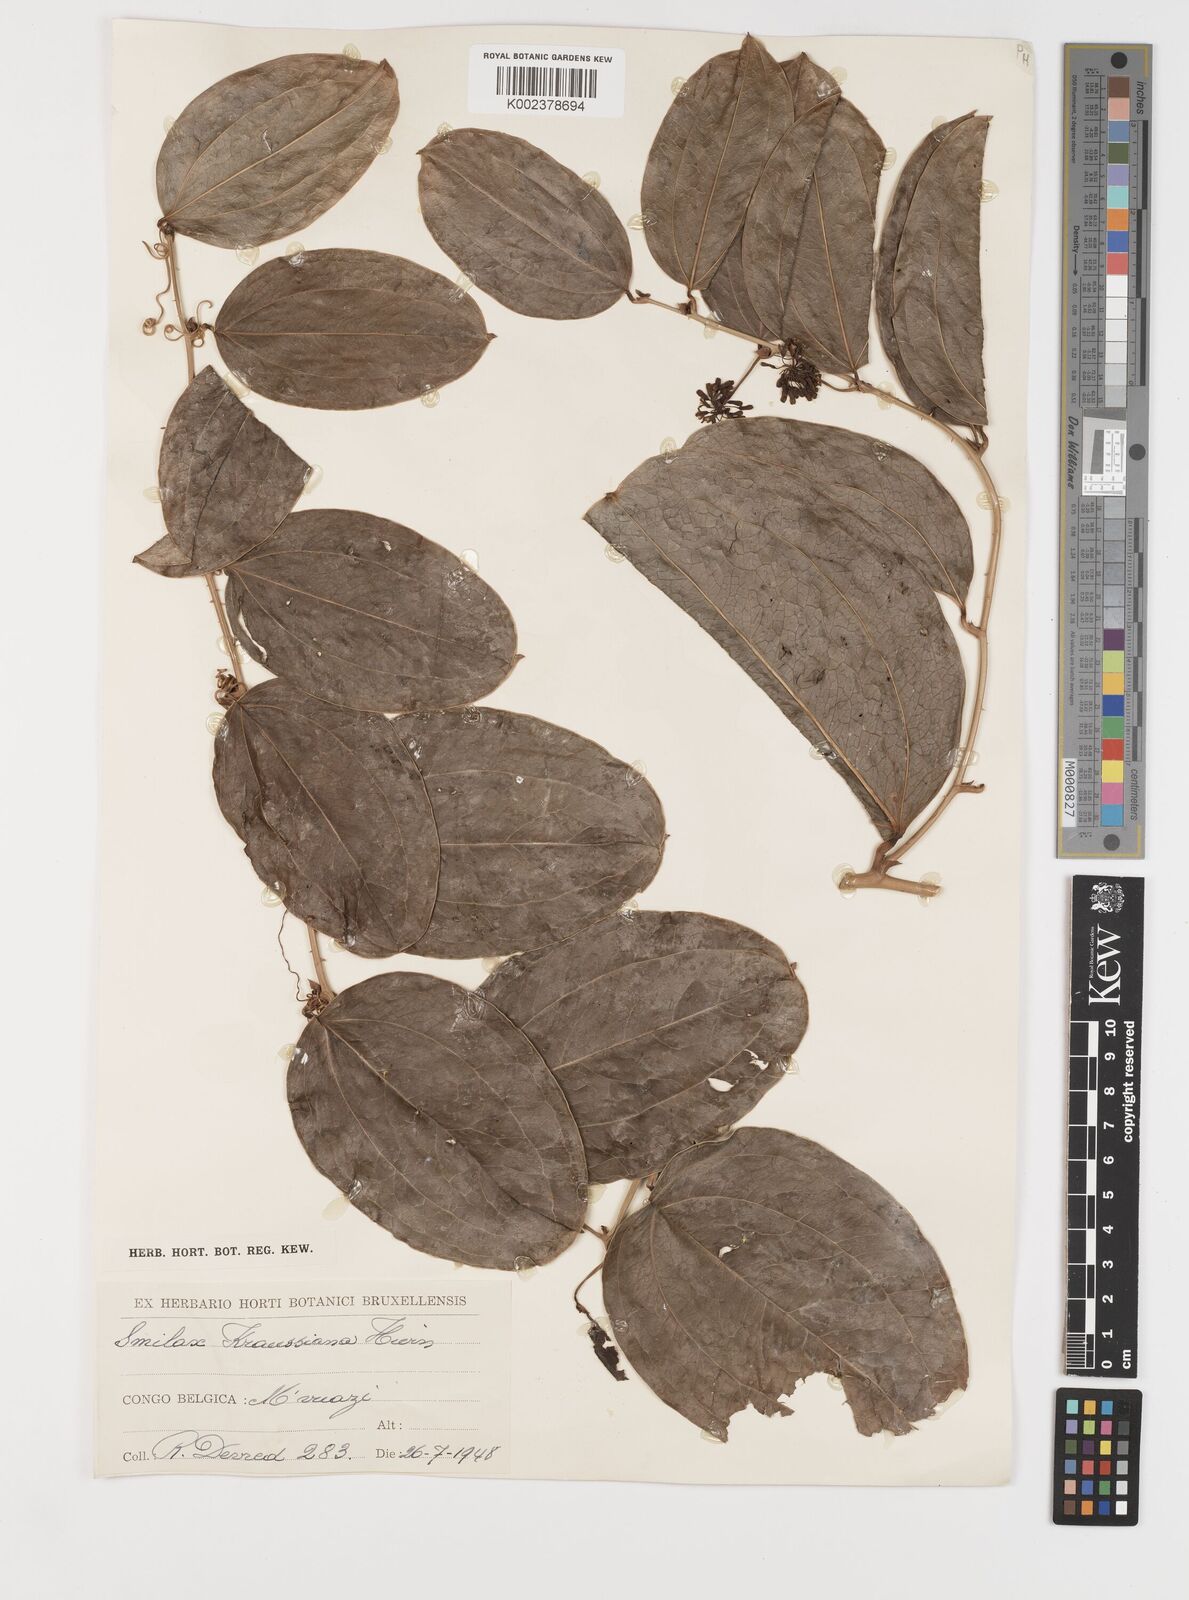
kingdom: Plantae
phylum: Tracheophyta
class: Liliopsida
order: Liliales
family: Smilacaceae
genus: Smilax
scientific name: Smilax anceps
